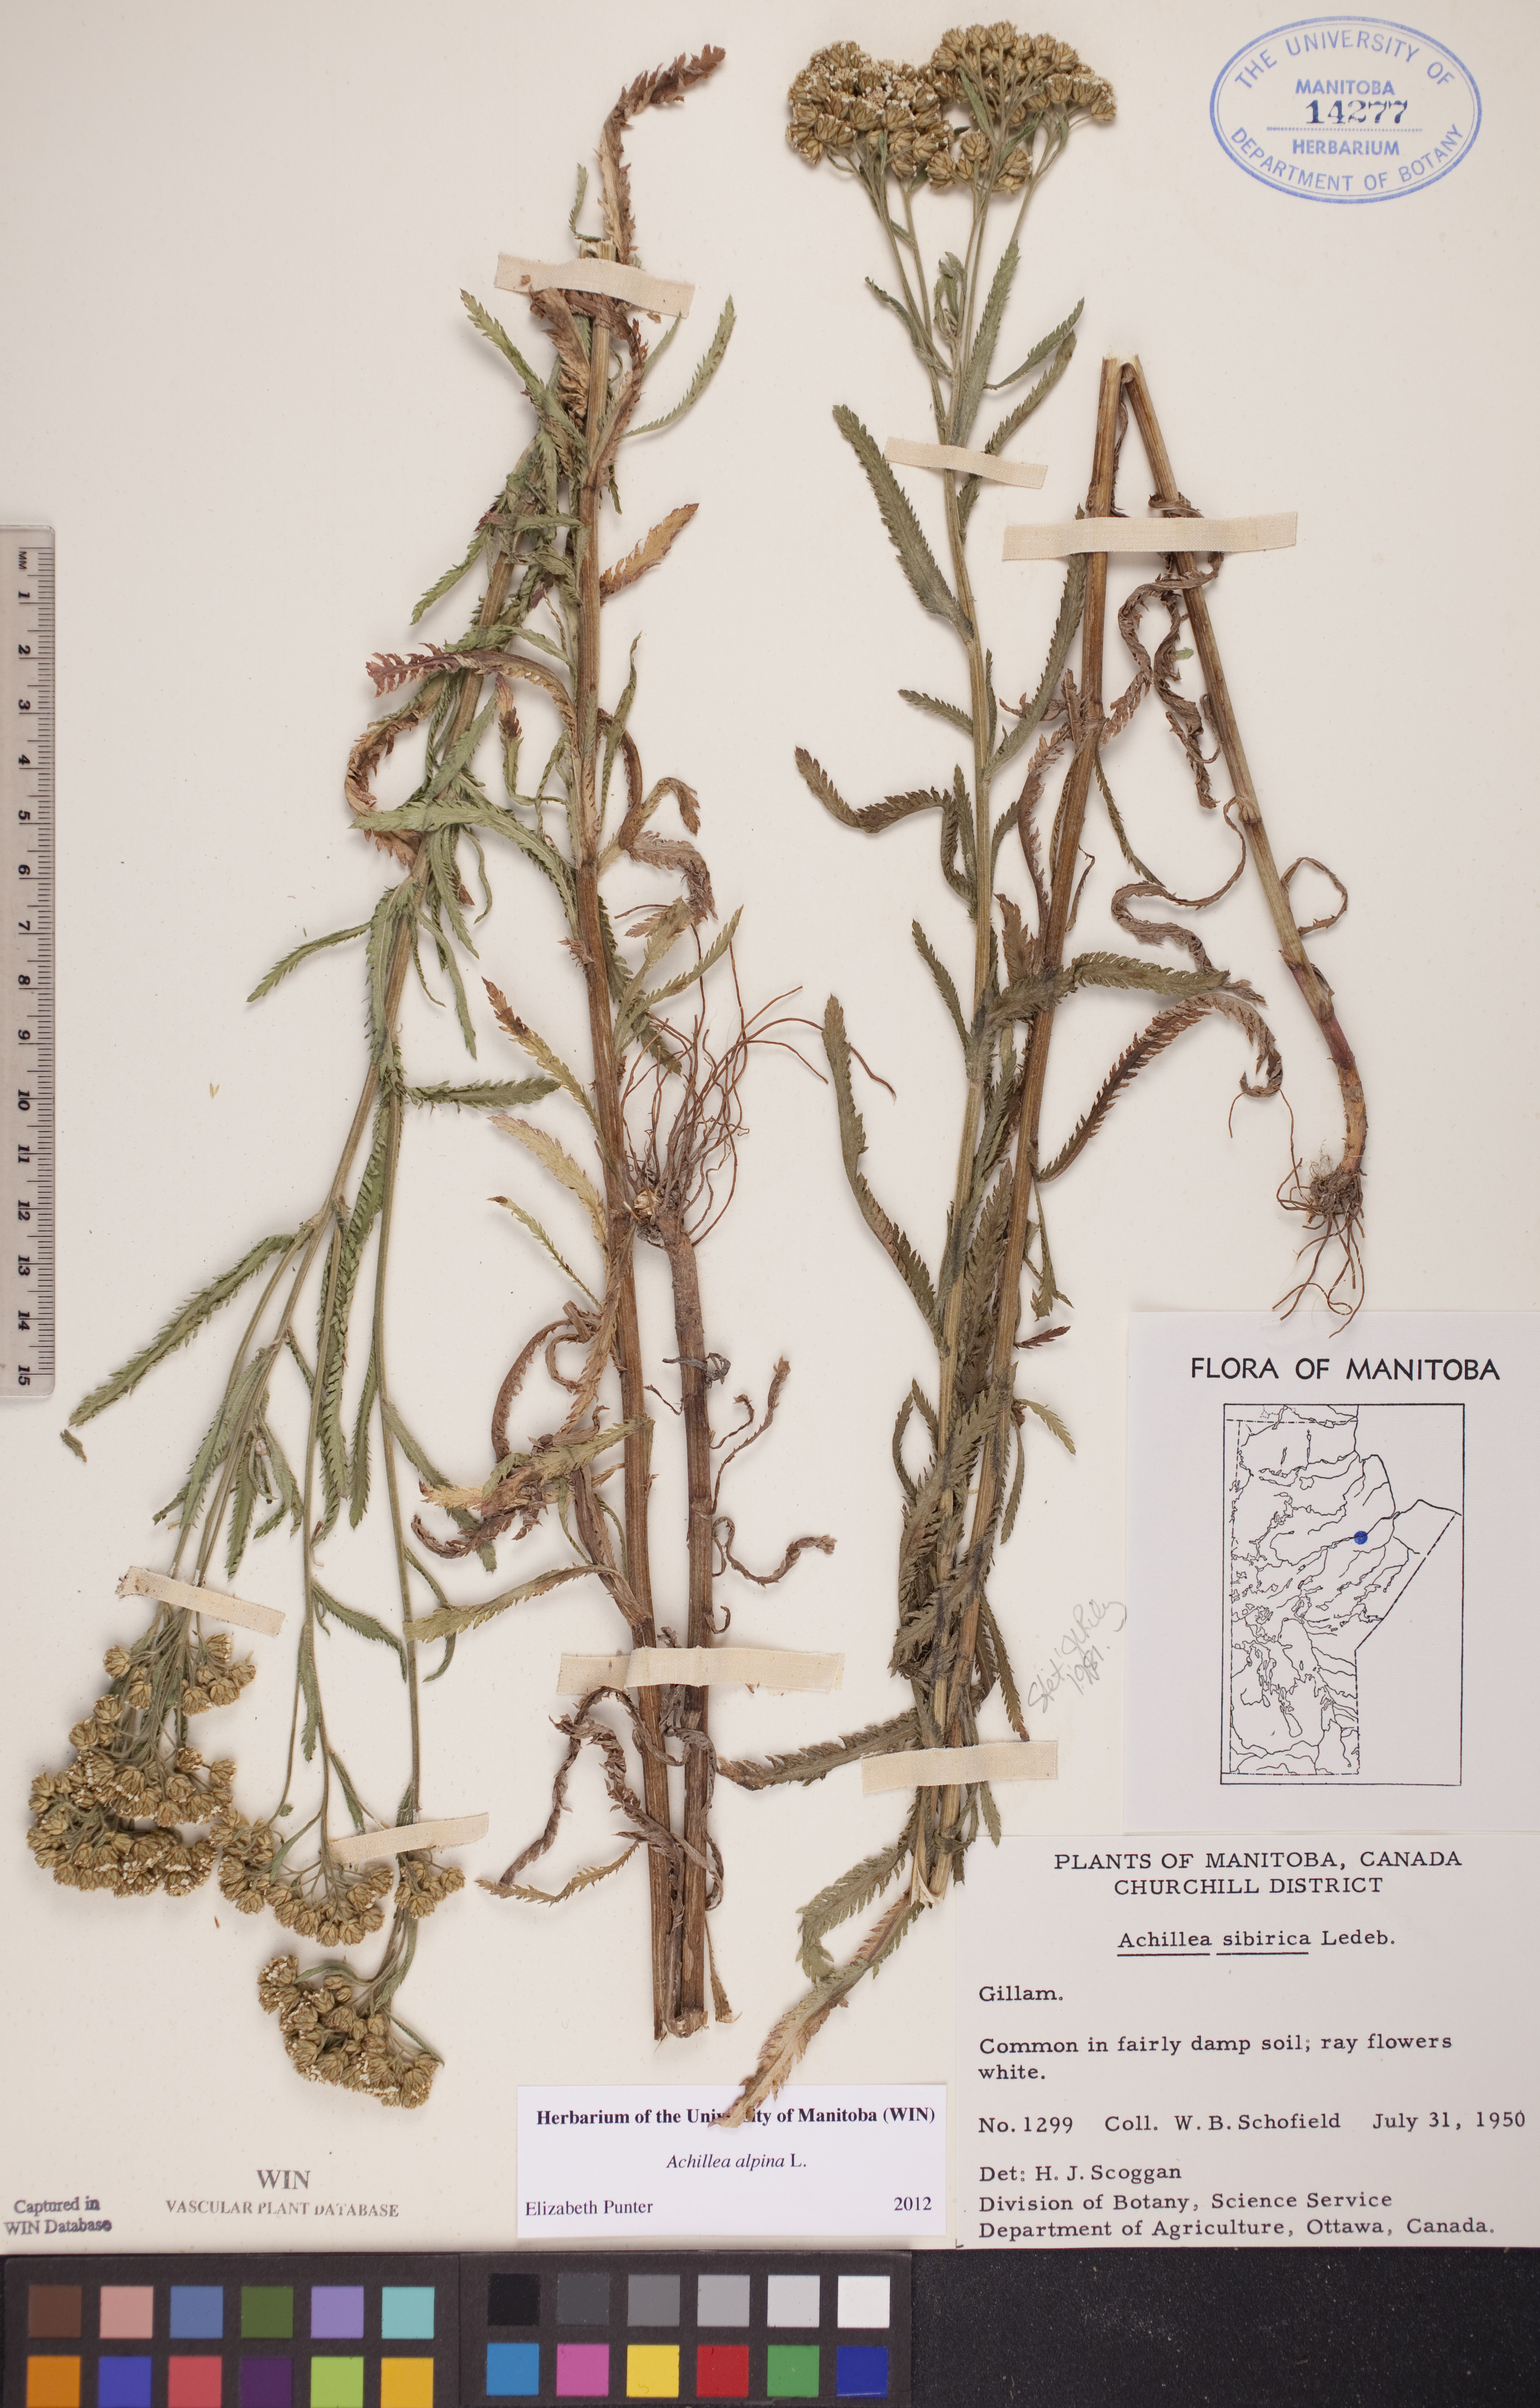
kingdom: Plantae
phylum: Tracheophyta
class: Magnoliopsida
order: Asterales
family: Asteraceae
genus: Achillea
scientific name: Achillea alpina
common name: Siberian yarrow
